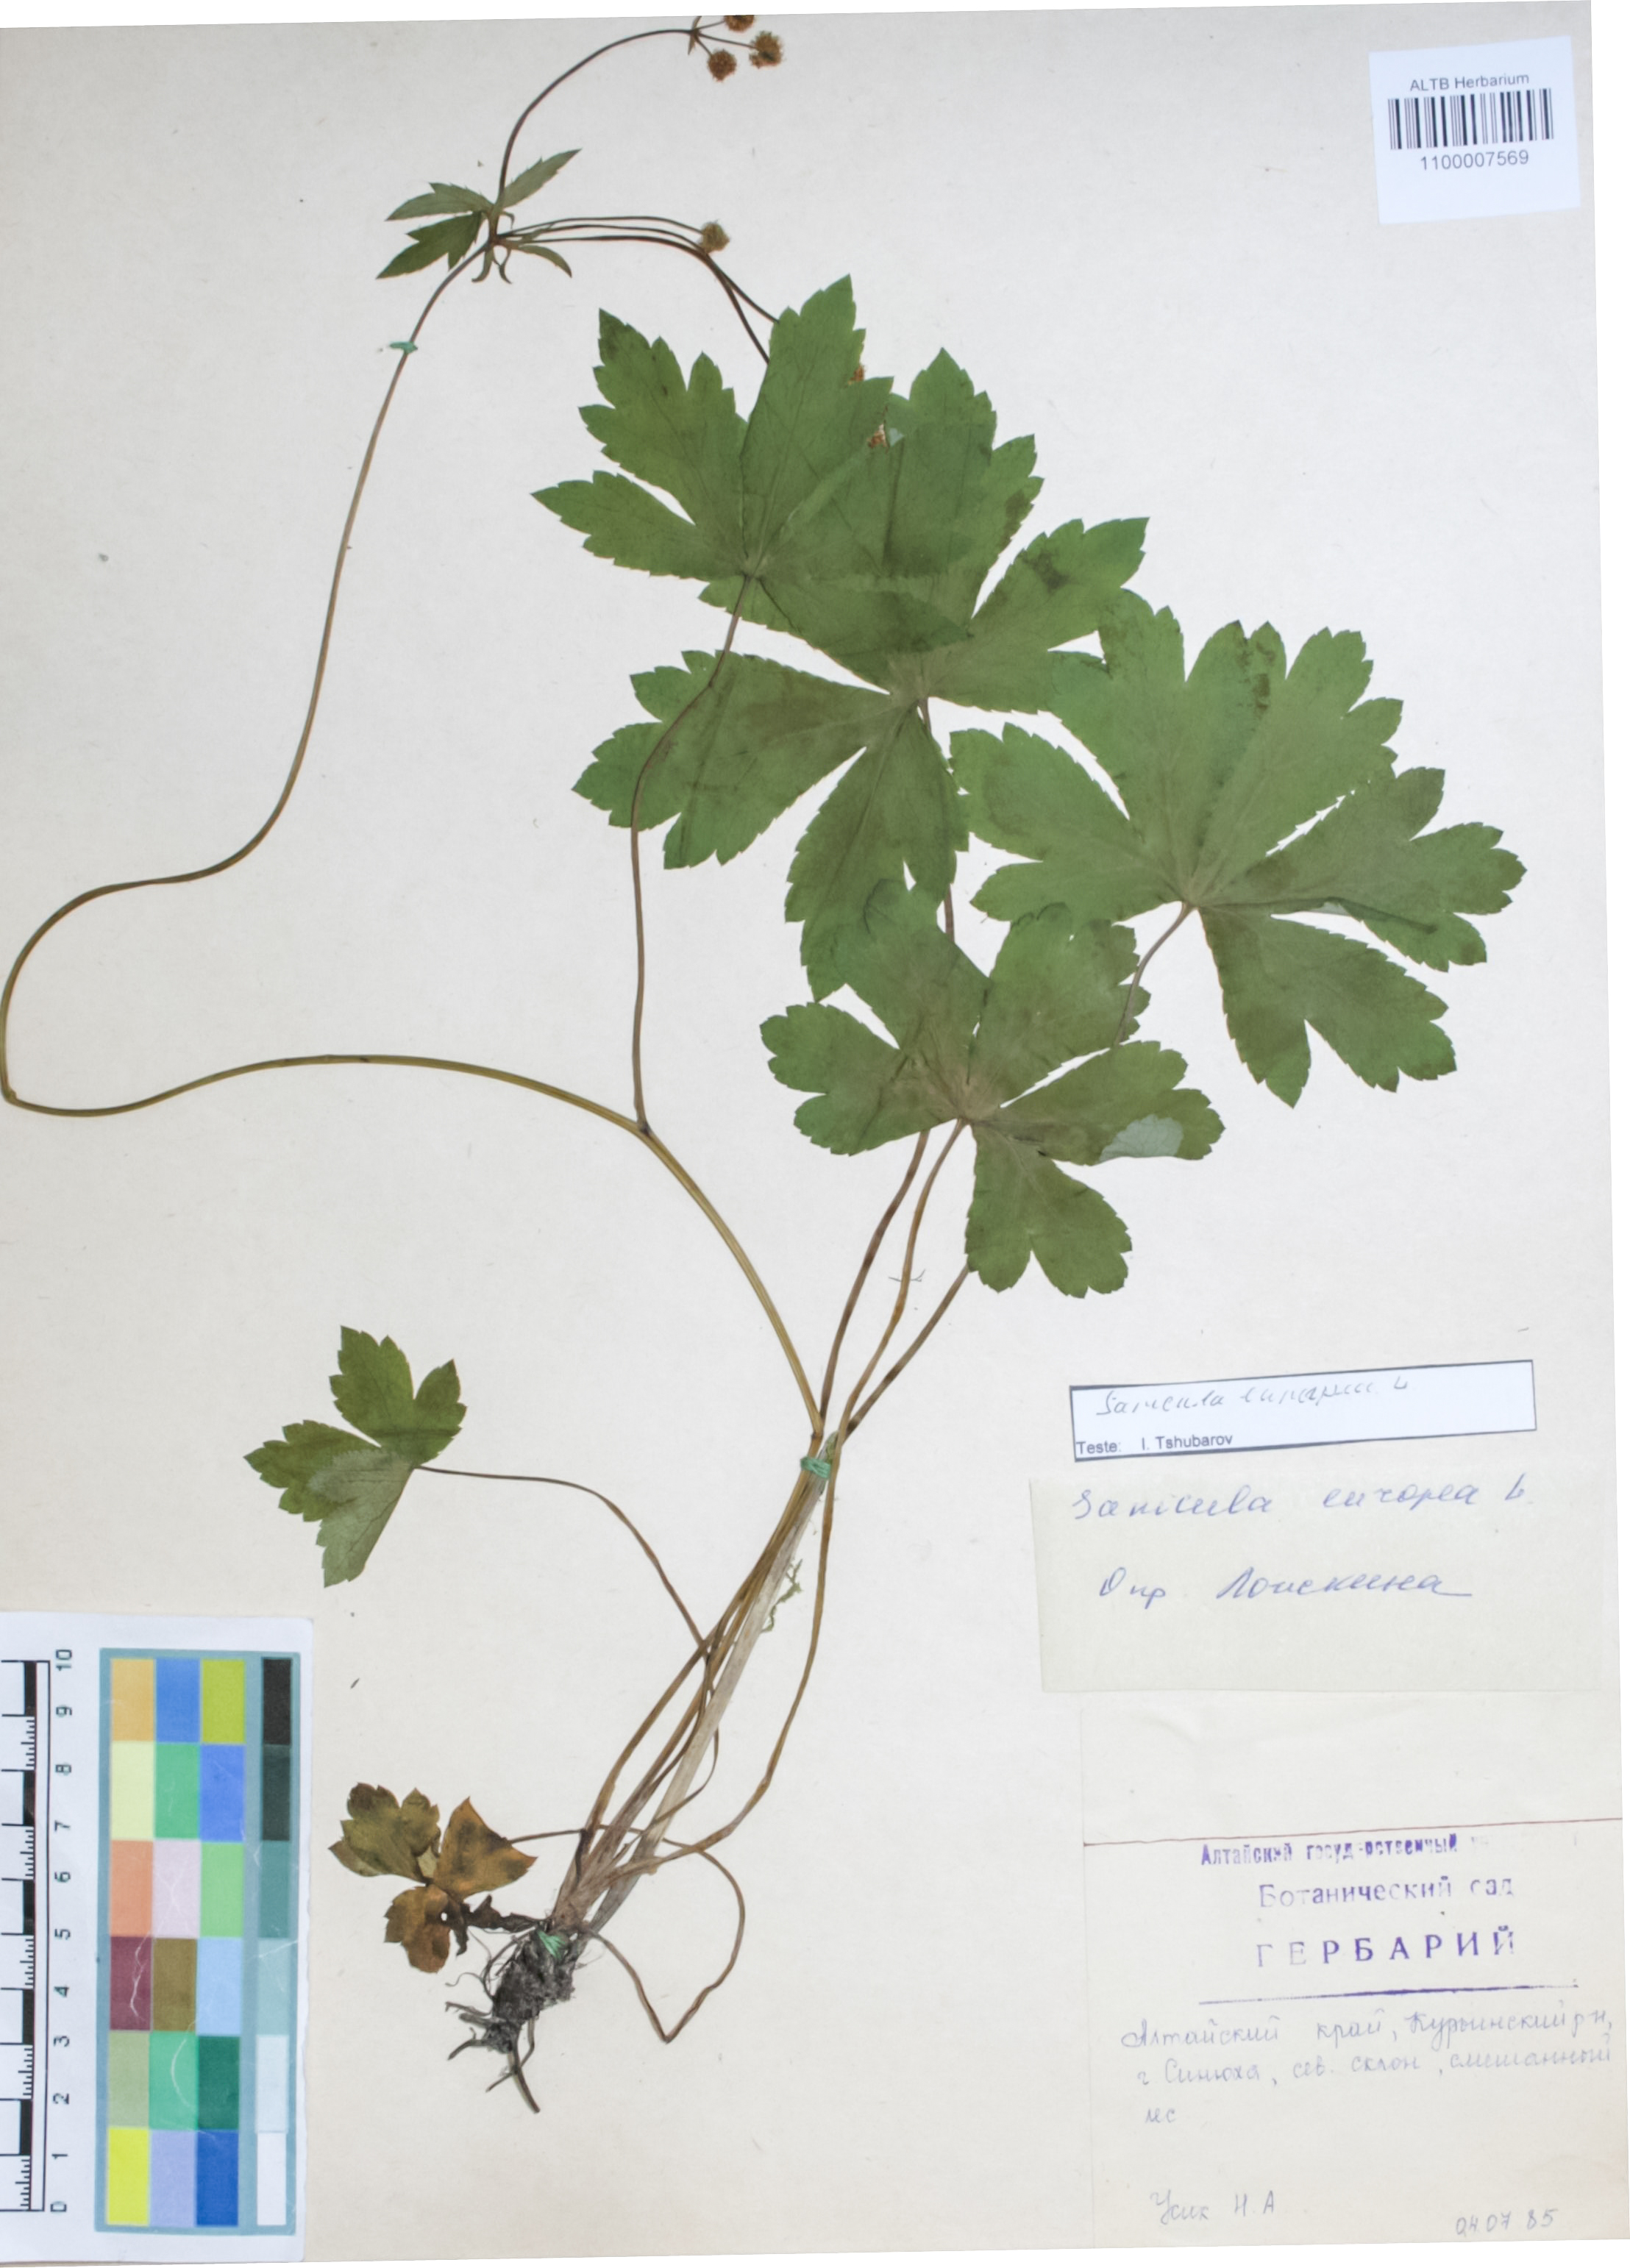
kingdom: Plantae
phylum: Tracheophyta
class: Magnoliopsida
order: Apiales
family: Apiaceae
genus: Sanicula
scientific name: Sanicula europaea
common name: Sanicle
